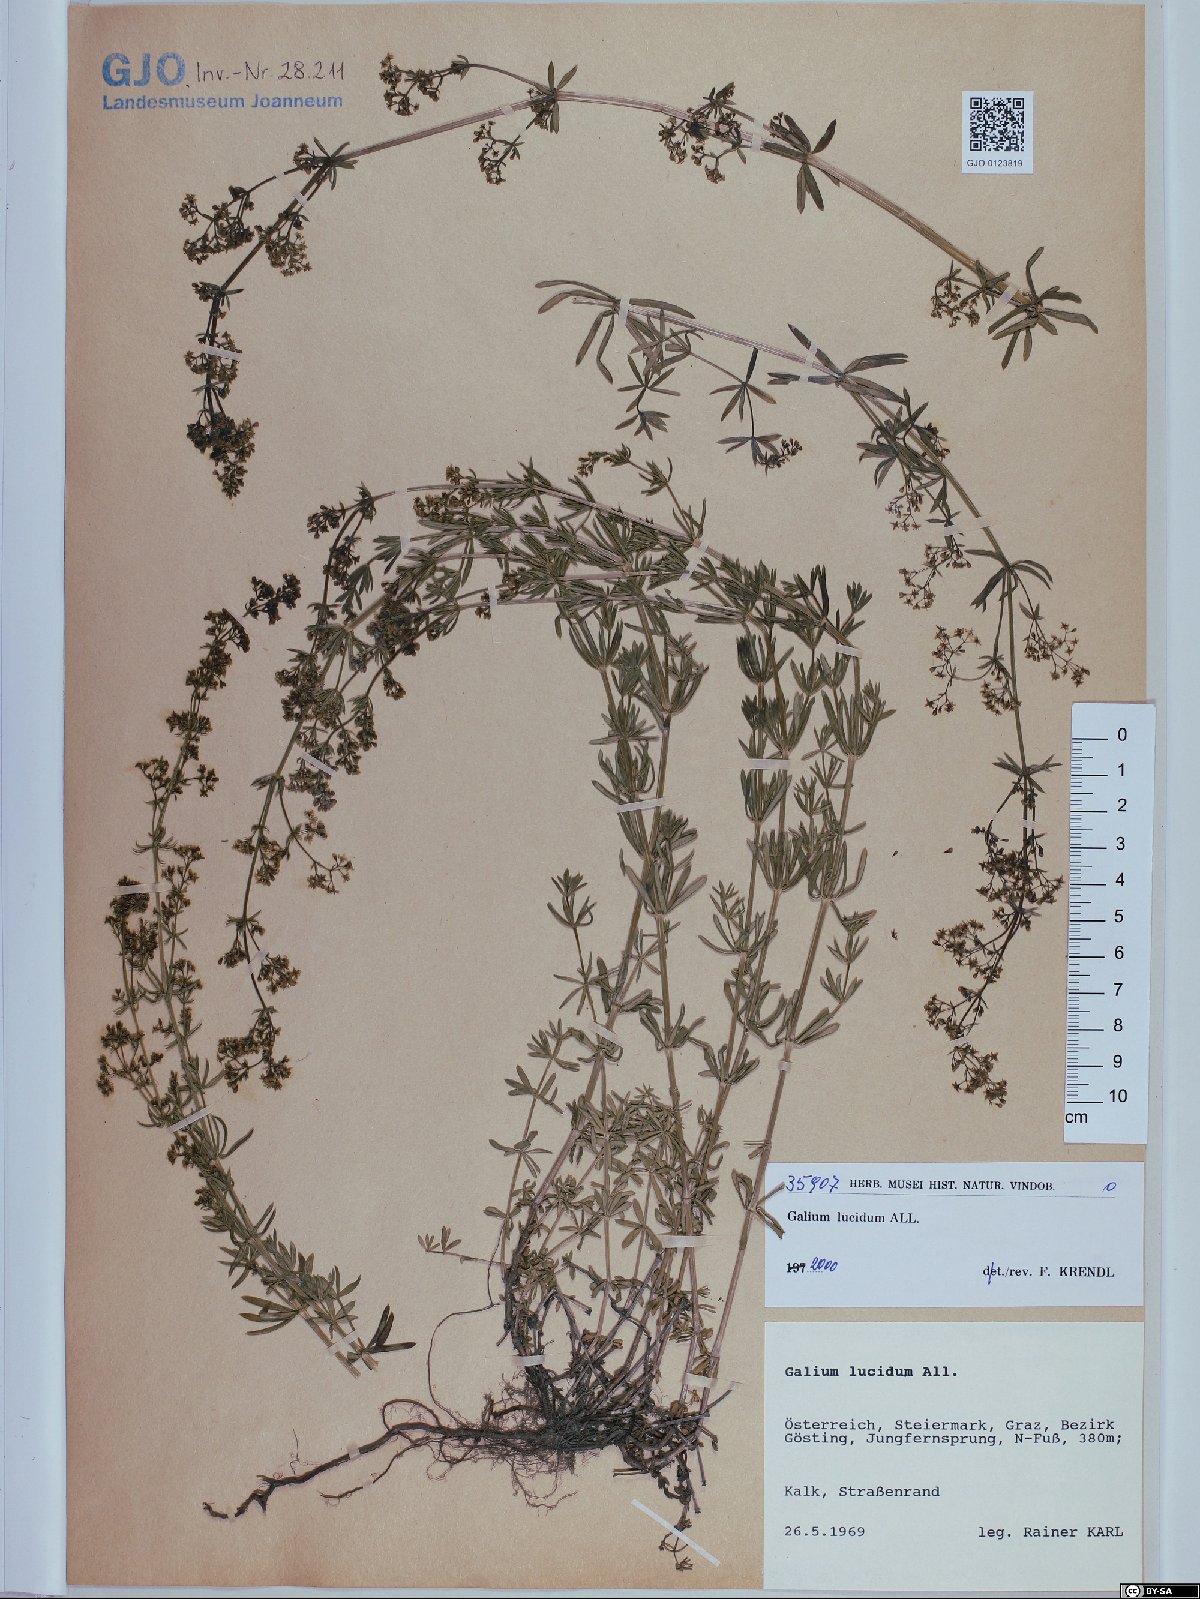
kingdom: Plantae
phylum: Tracheophyta
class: Magnoliopsida
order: Gentianales
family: Rubiaceae
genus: Galium
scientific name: Galium lucidum
